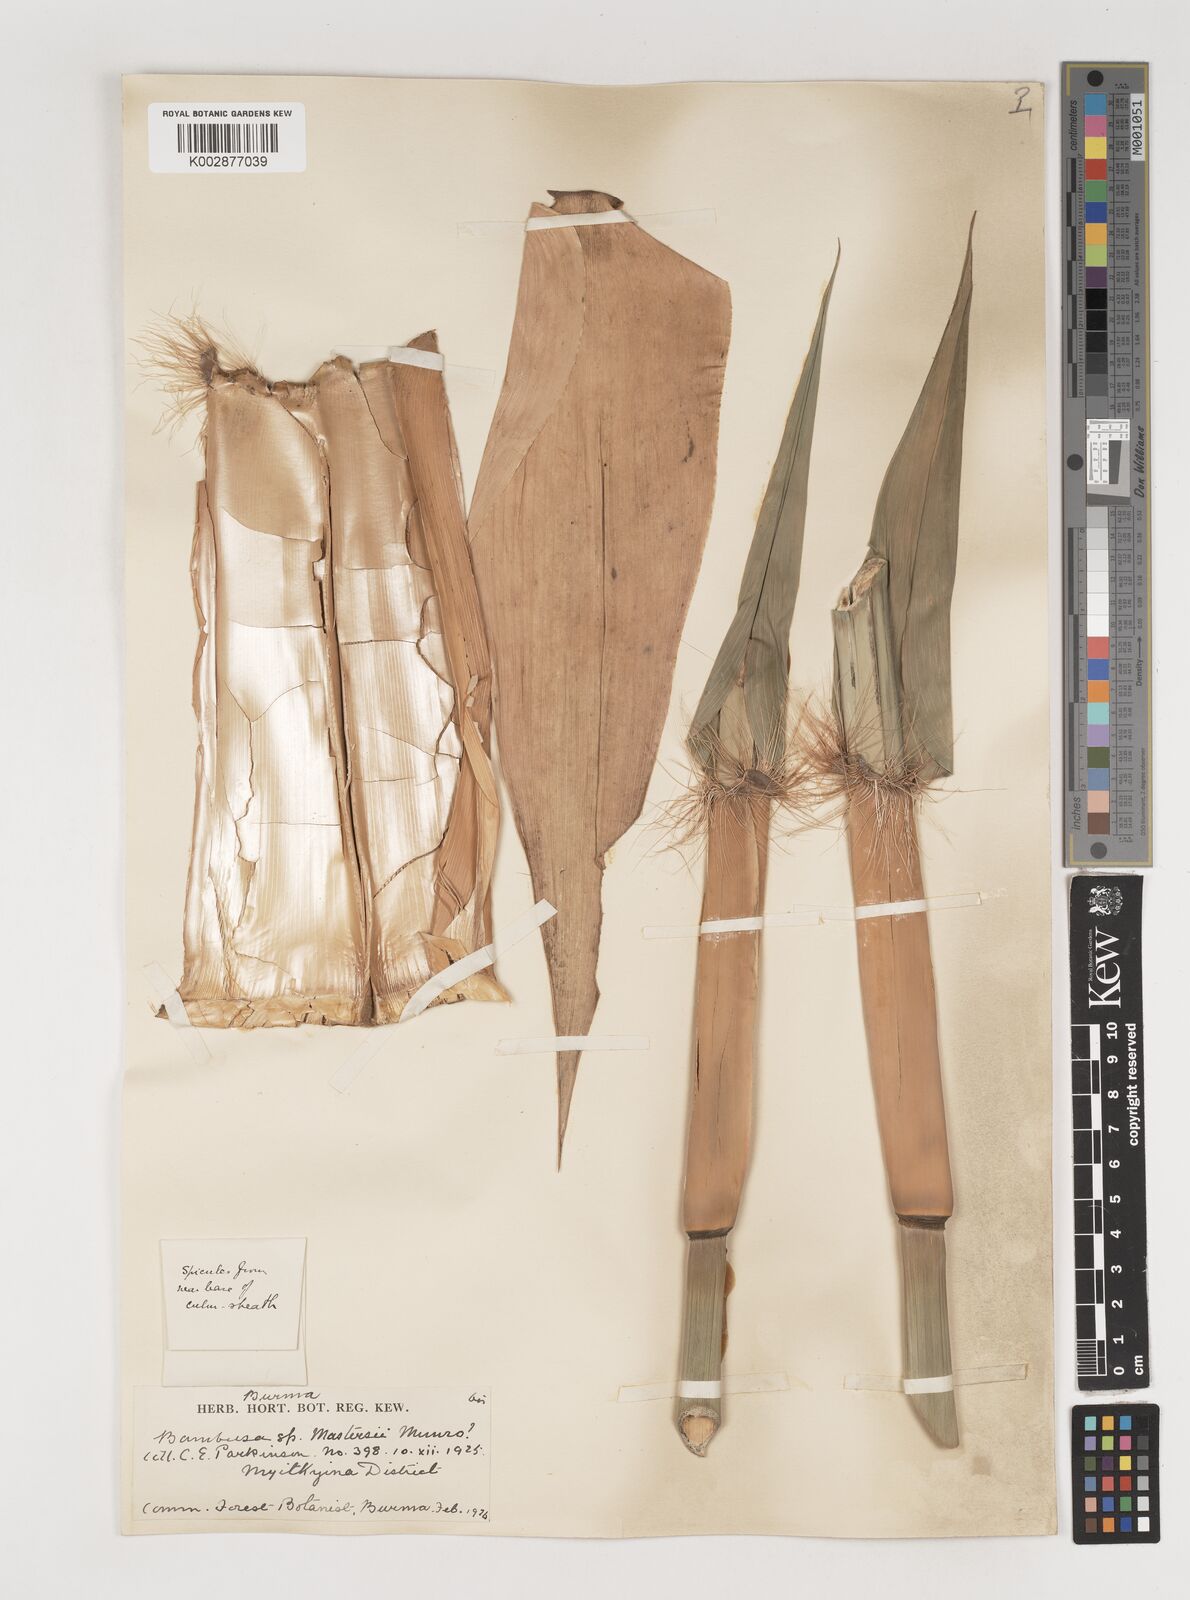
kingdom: Plantae
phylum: Tracheophyta
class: Liliopsida
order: Poales
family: Poaceae
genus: Bambusa
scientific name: Bambusa villosula
